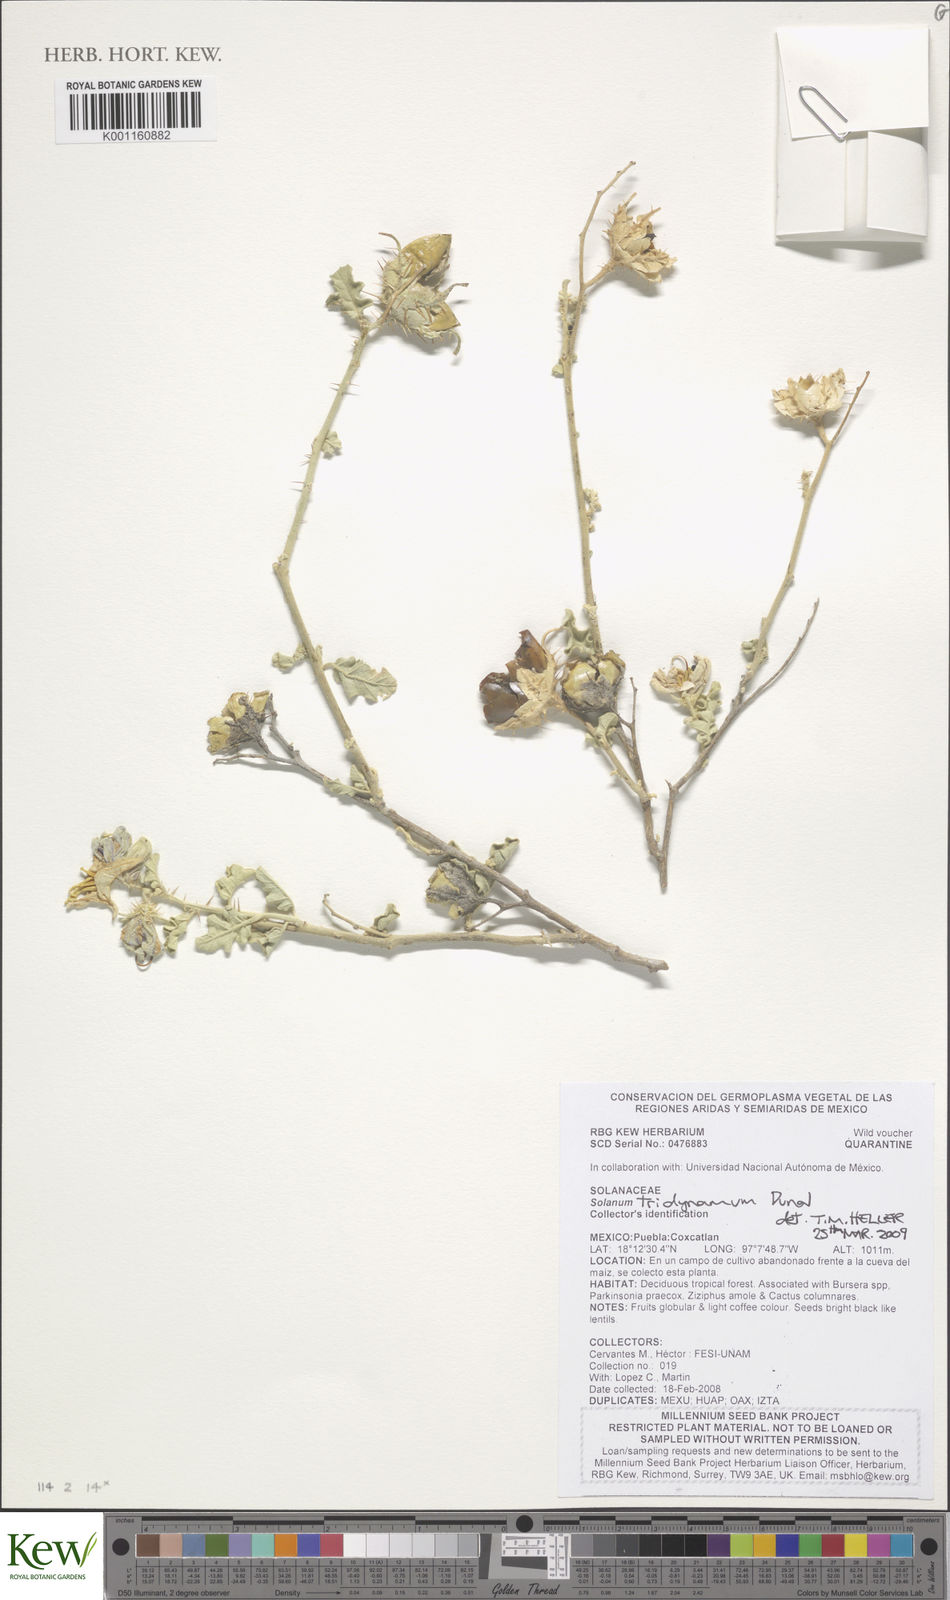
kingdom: Plantae
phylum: Tracheophyta
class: Magnoliopsida
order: Solanales
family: Solanaceae
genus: Solanum
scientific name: Solanum houstonii
